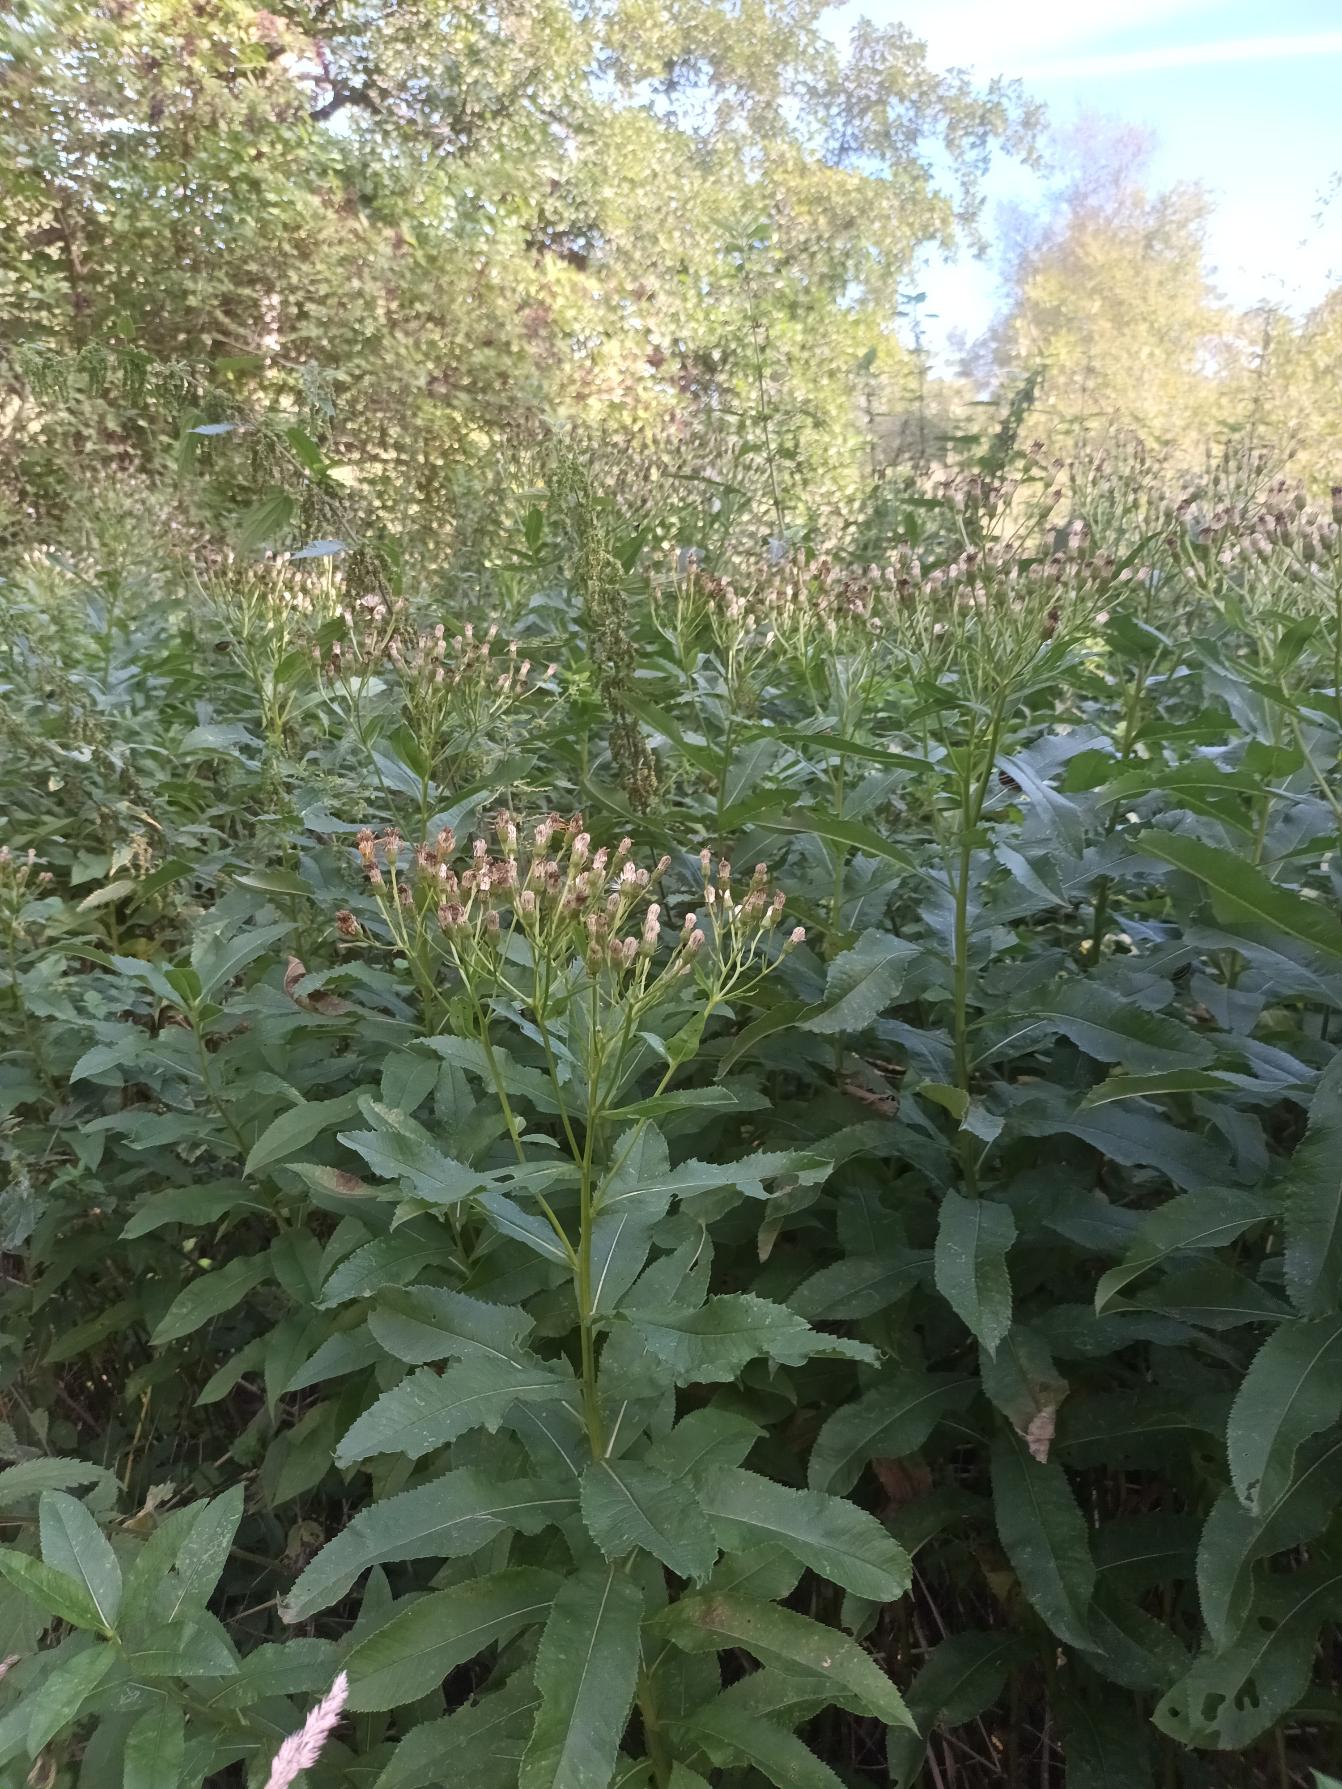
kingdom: Plantae
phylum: Tracheophyta
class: Magnoliopsida
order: Asterales
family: Asteraceae
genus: Senecio
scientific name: Senecio sarracenicus
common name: Saracenisk brandbæger
